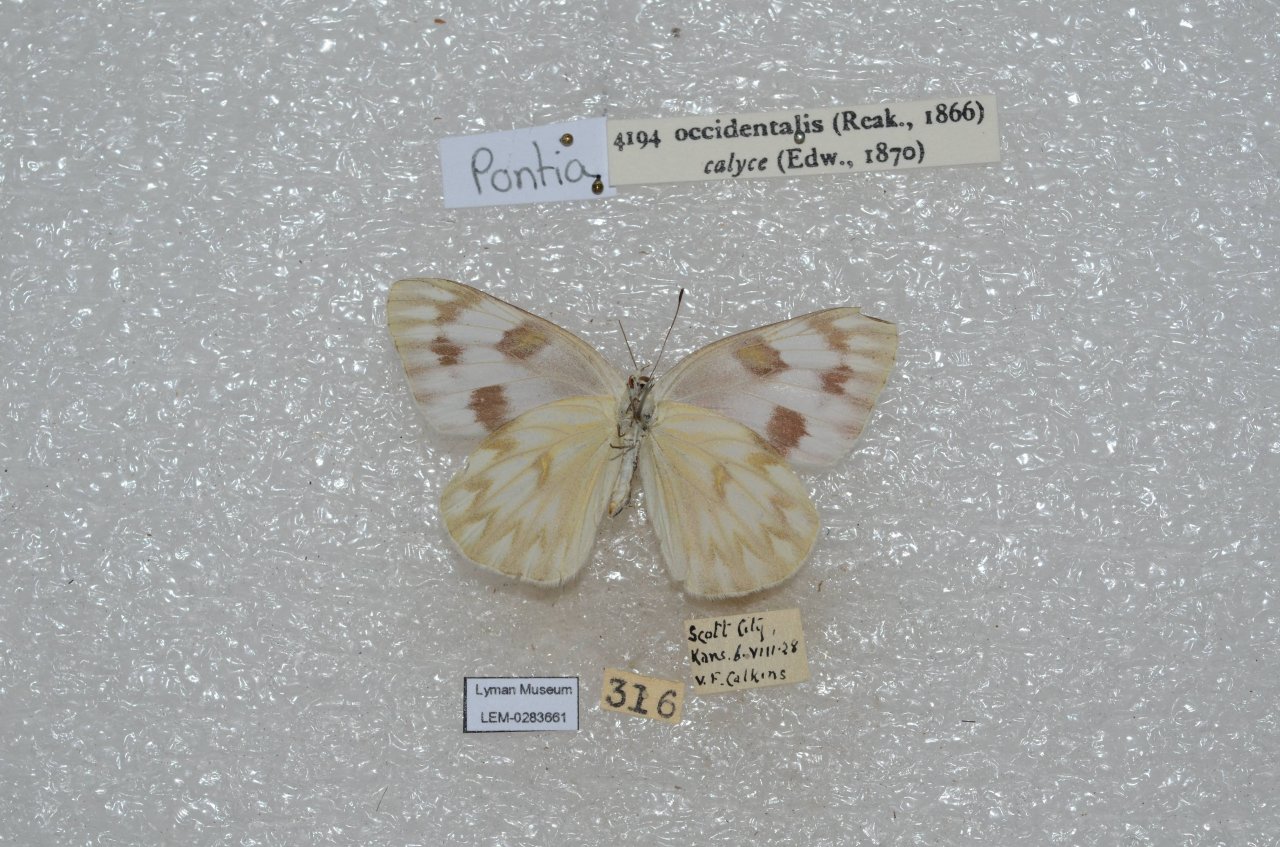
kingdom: Animalia
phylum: Arthropoda
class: Insecta
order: Lepidoptera
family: Pieridae
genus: Pontia
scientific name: Pontia occidentalis
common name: Western White
